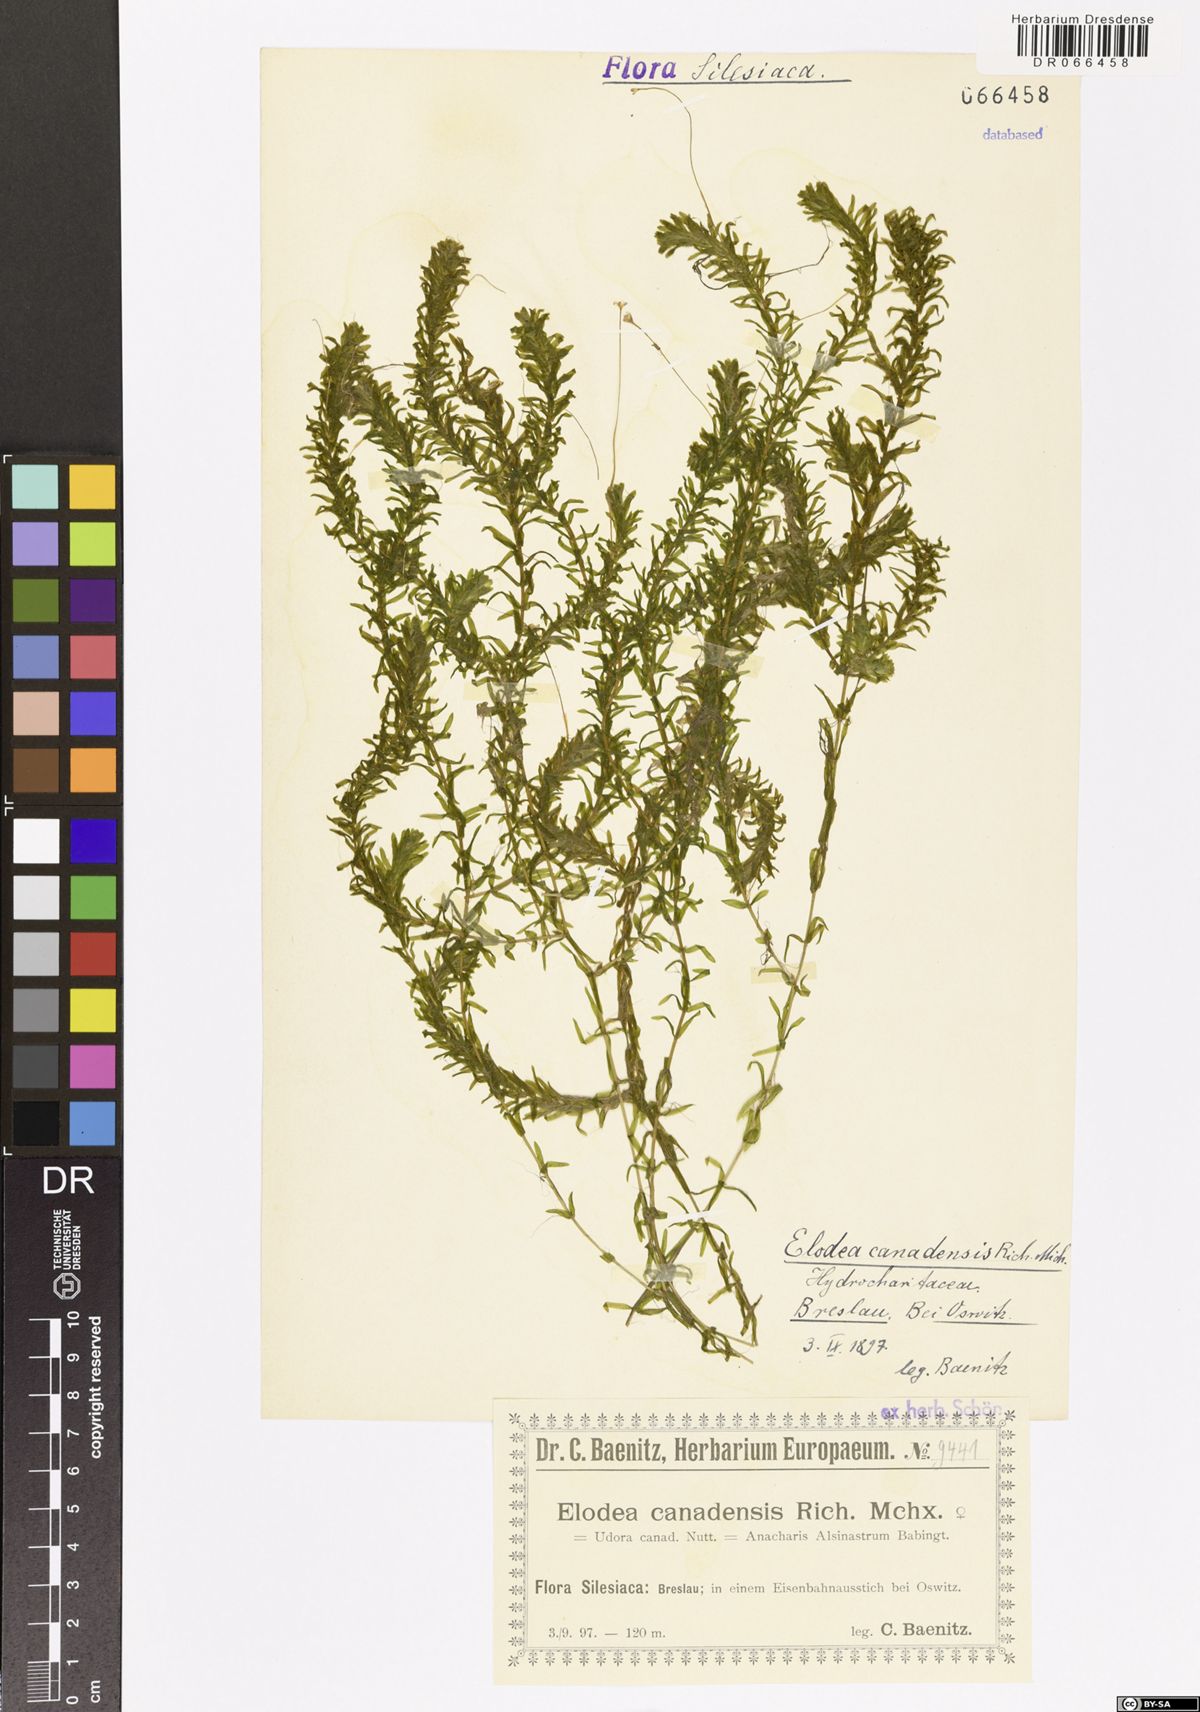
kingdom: Plantae
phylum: Tracheophyta
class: Liliopsida
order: Alismatales
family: Hydrocharitaceae
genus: Elodea
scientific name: Elodea canadensis
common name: Canadian waterweed
